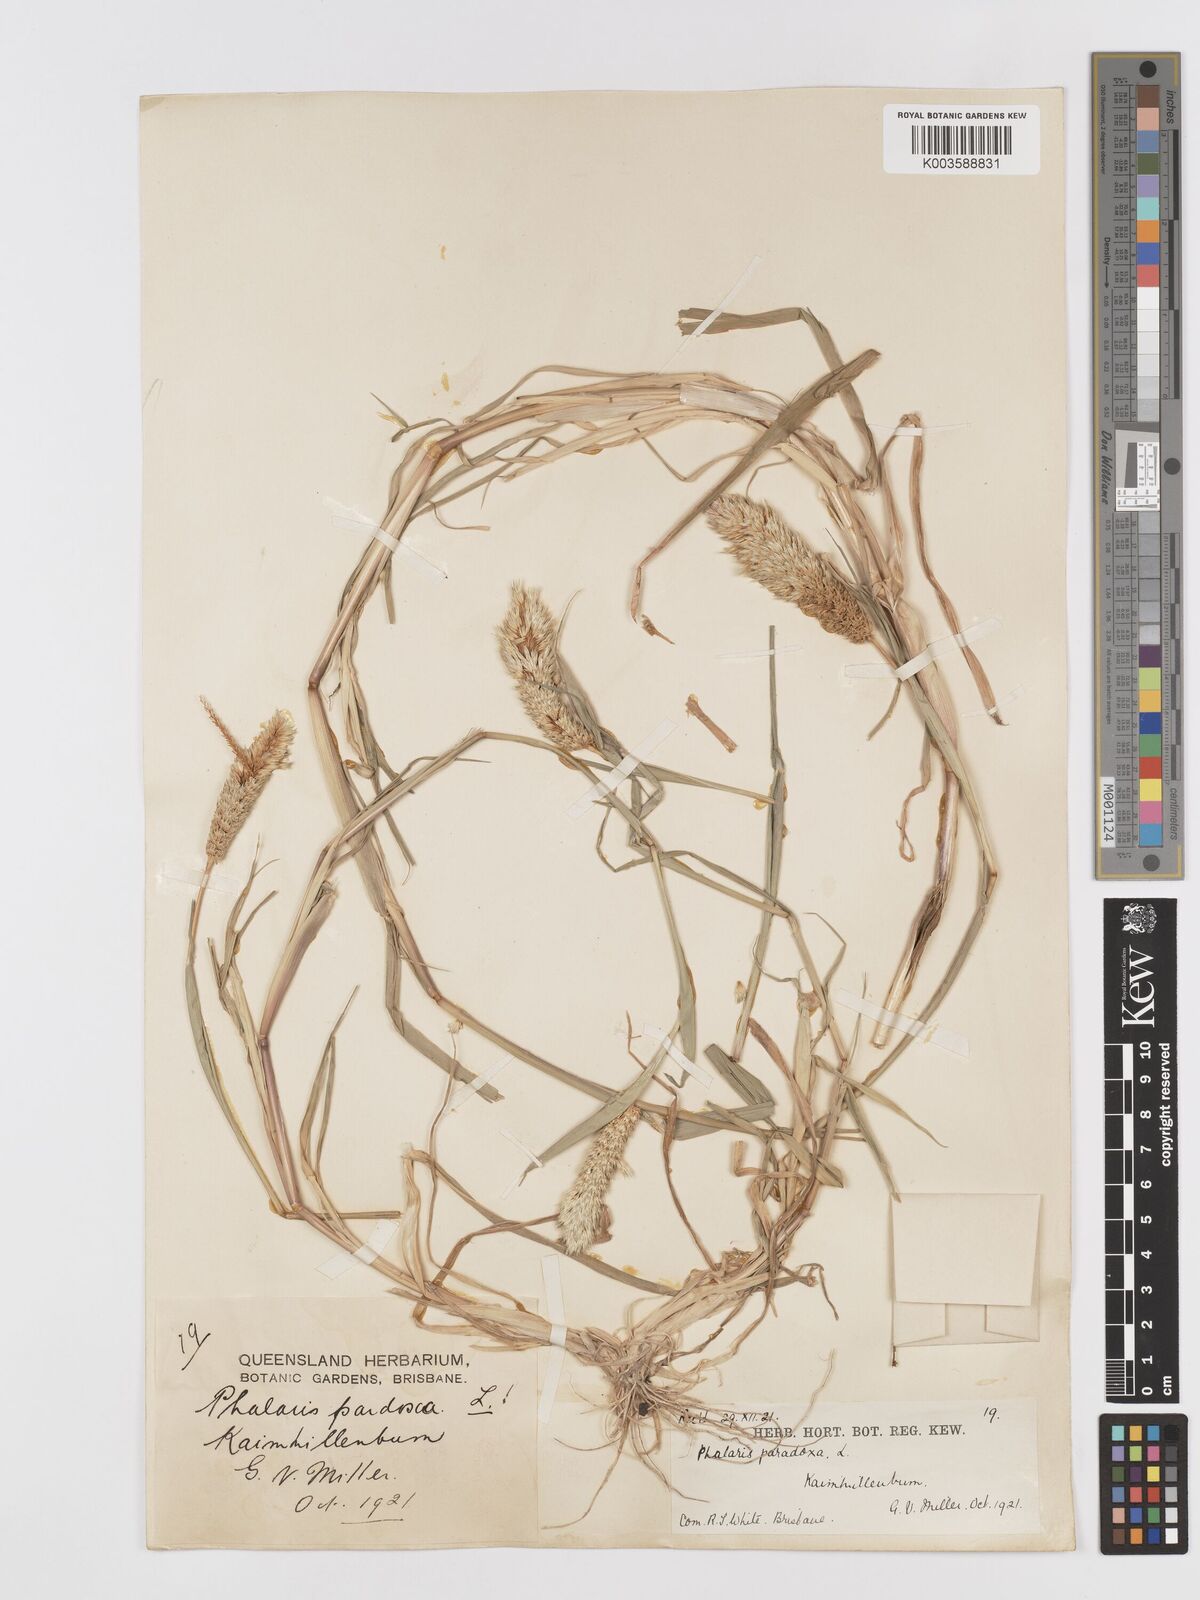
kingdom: Plantae
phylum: Tracheophyta
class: Liliopsida
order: Poales
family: Poaceae
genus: Phalaris
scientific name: Phalaris paradoxa
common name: Awned canary-grass
